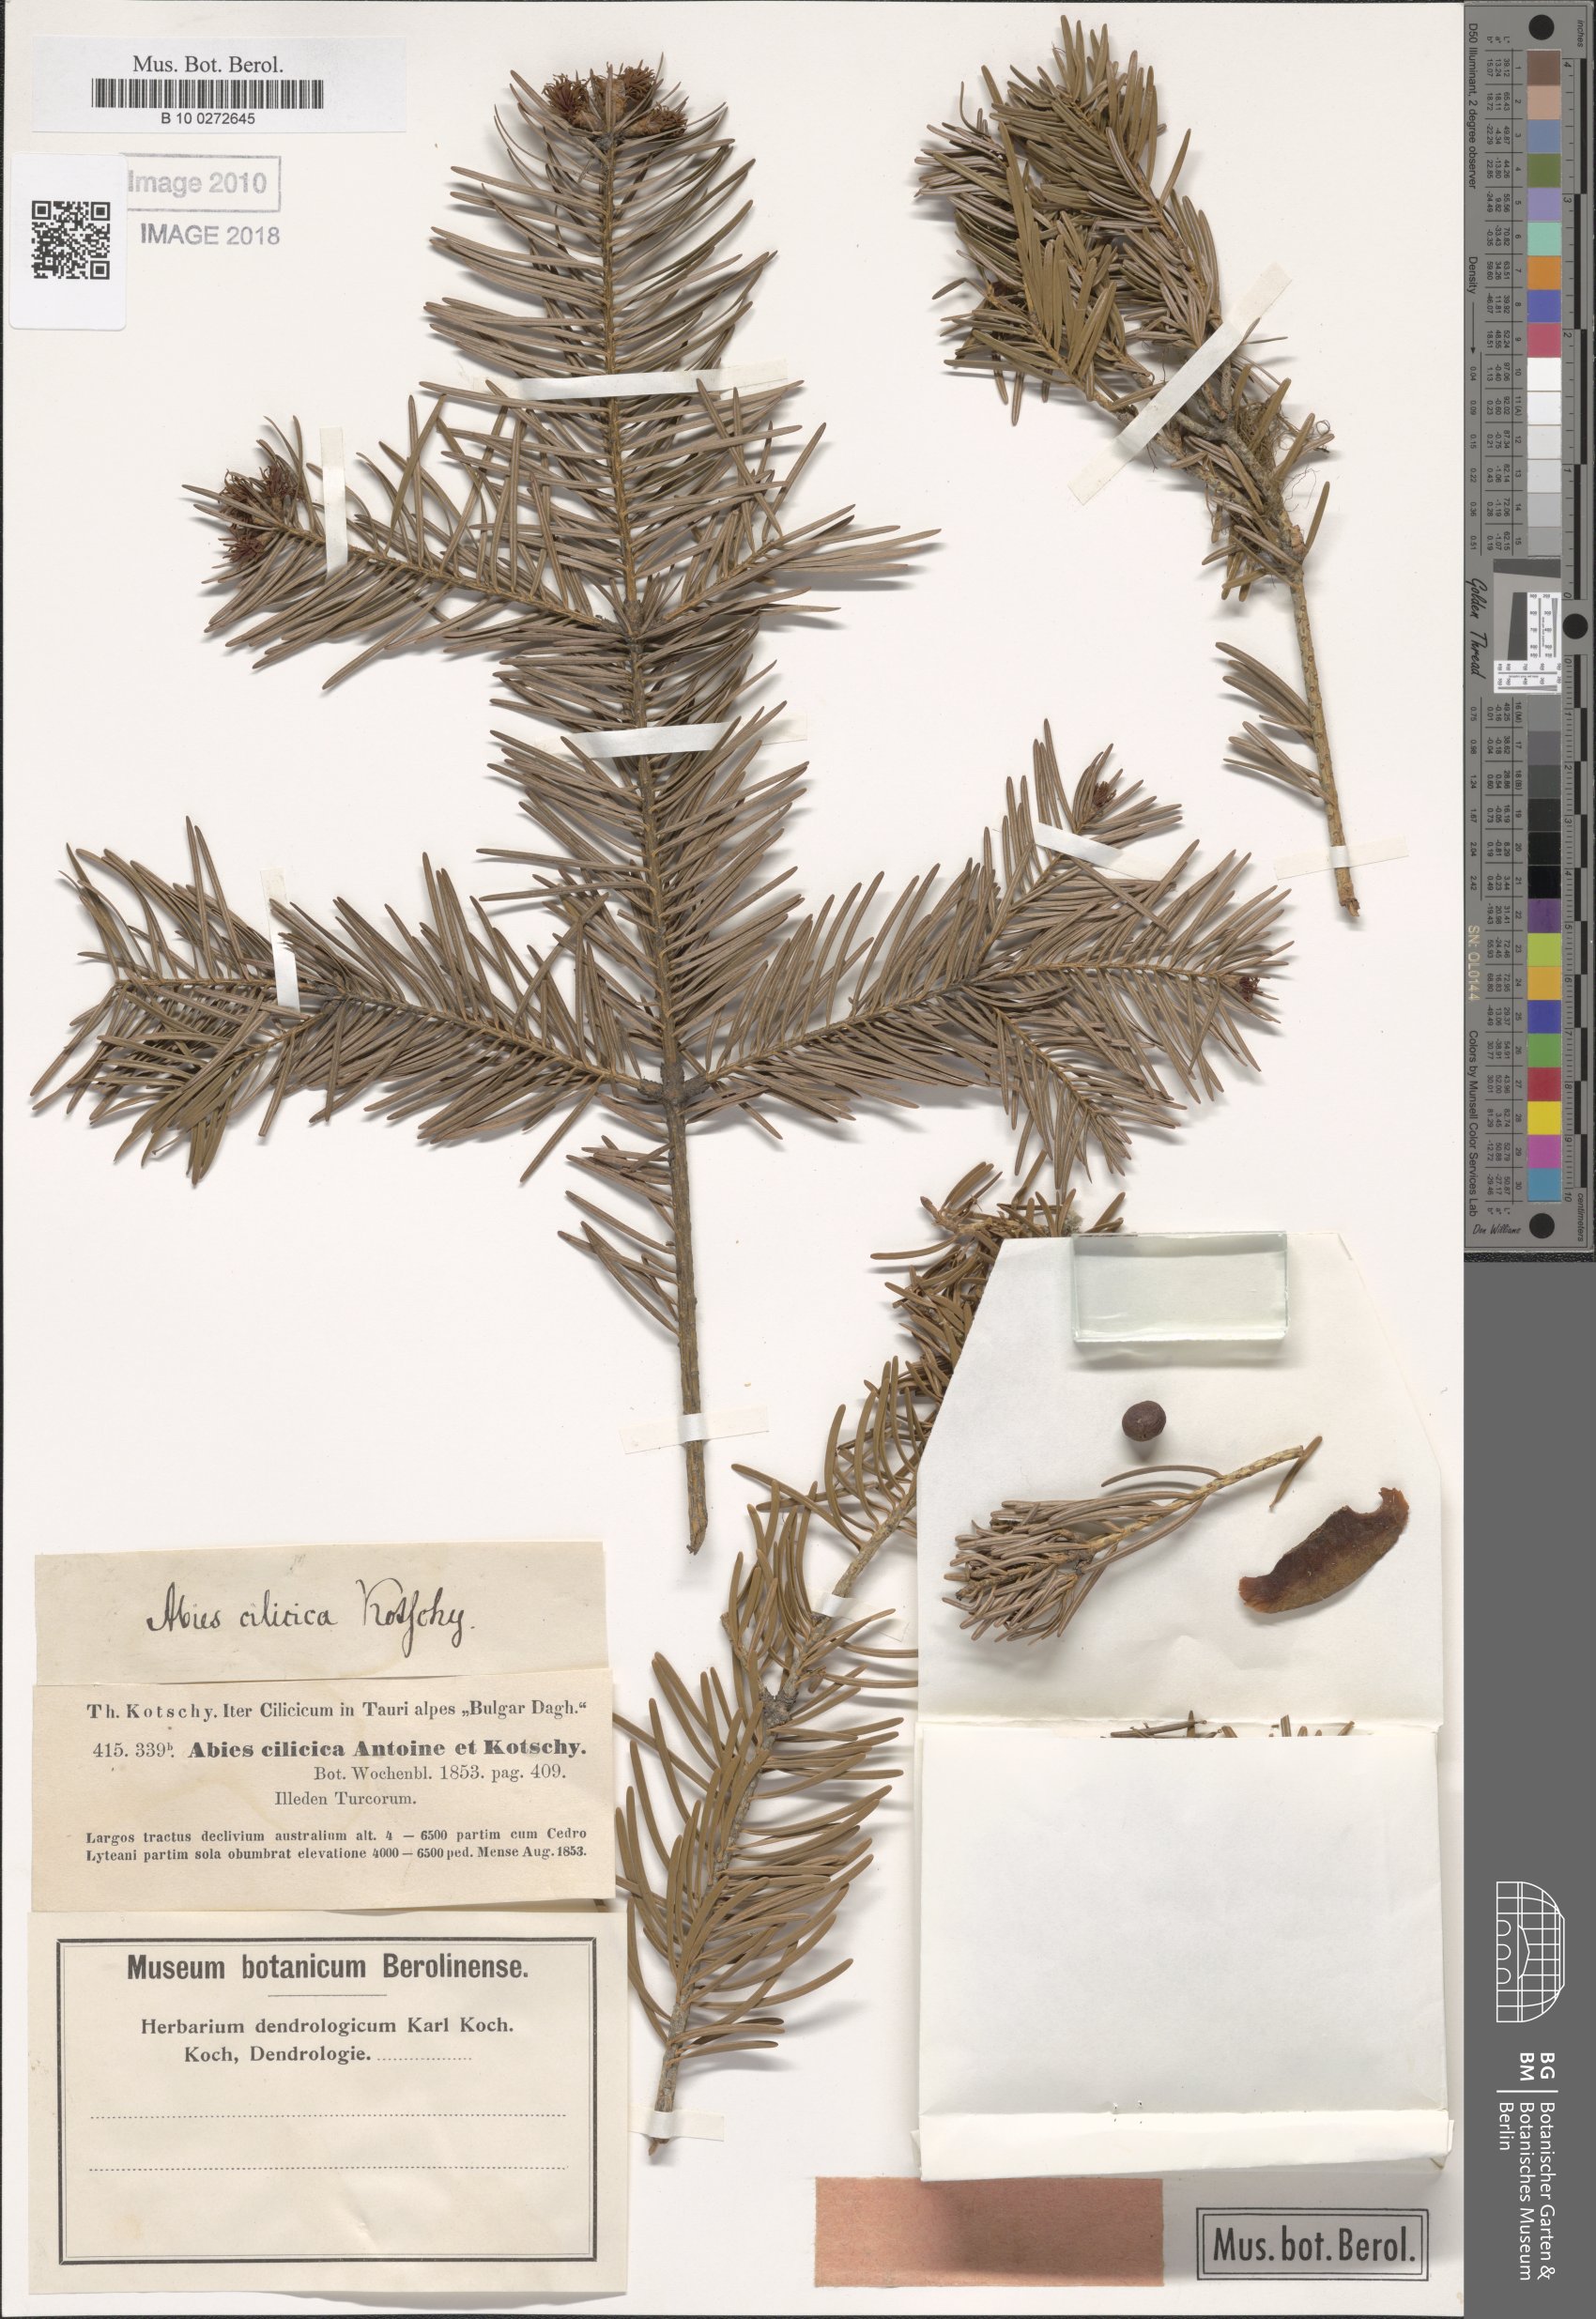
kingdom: Plantae
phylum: Tracheophyta
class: Pinopsida
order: Pinales
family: Pinaceae
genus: Abies
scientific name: Abies cilicica
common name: Cilician fir
